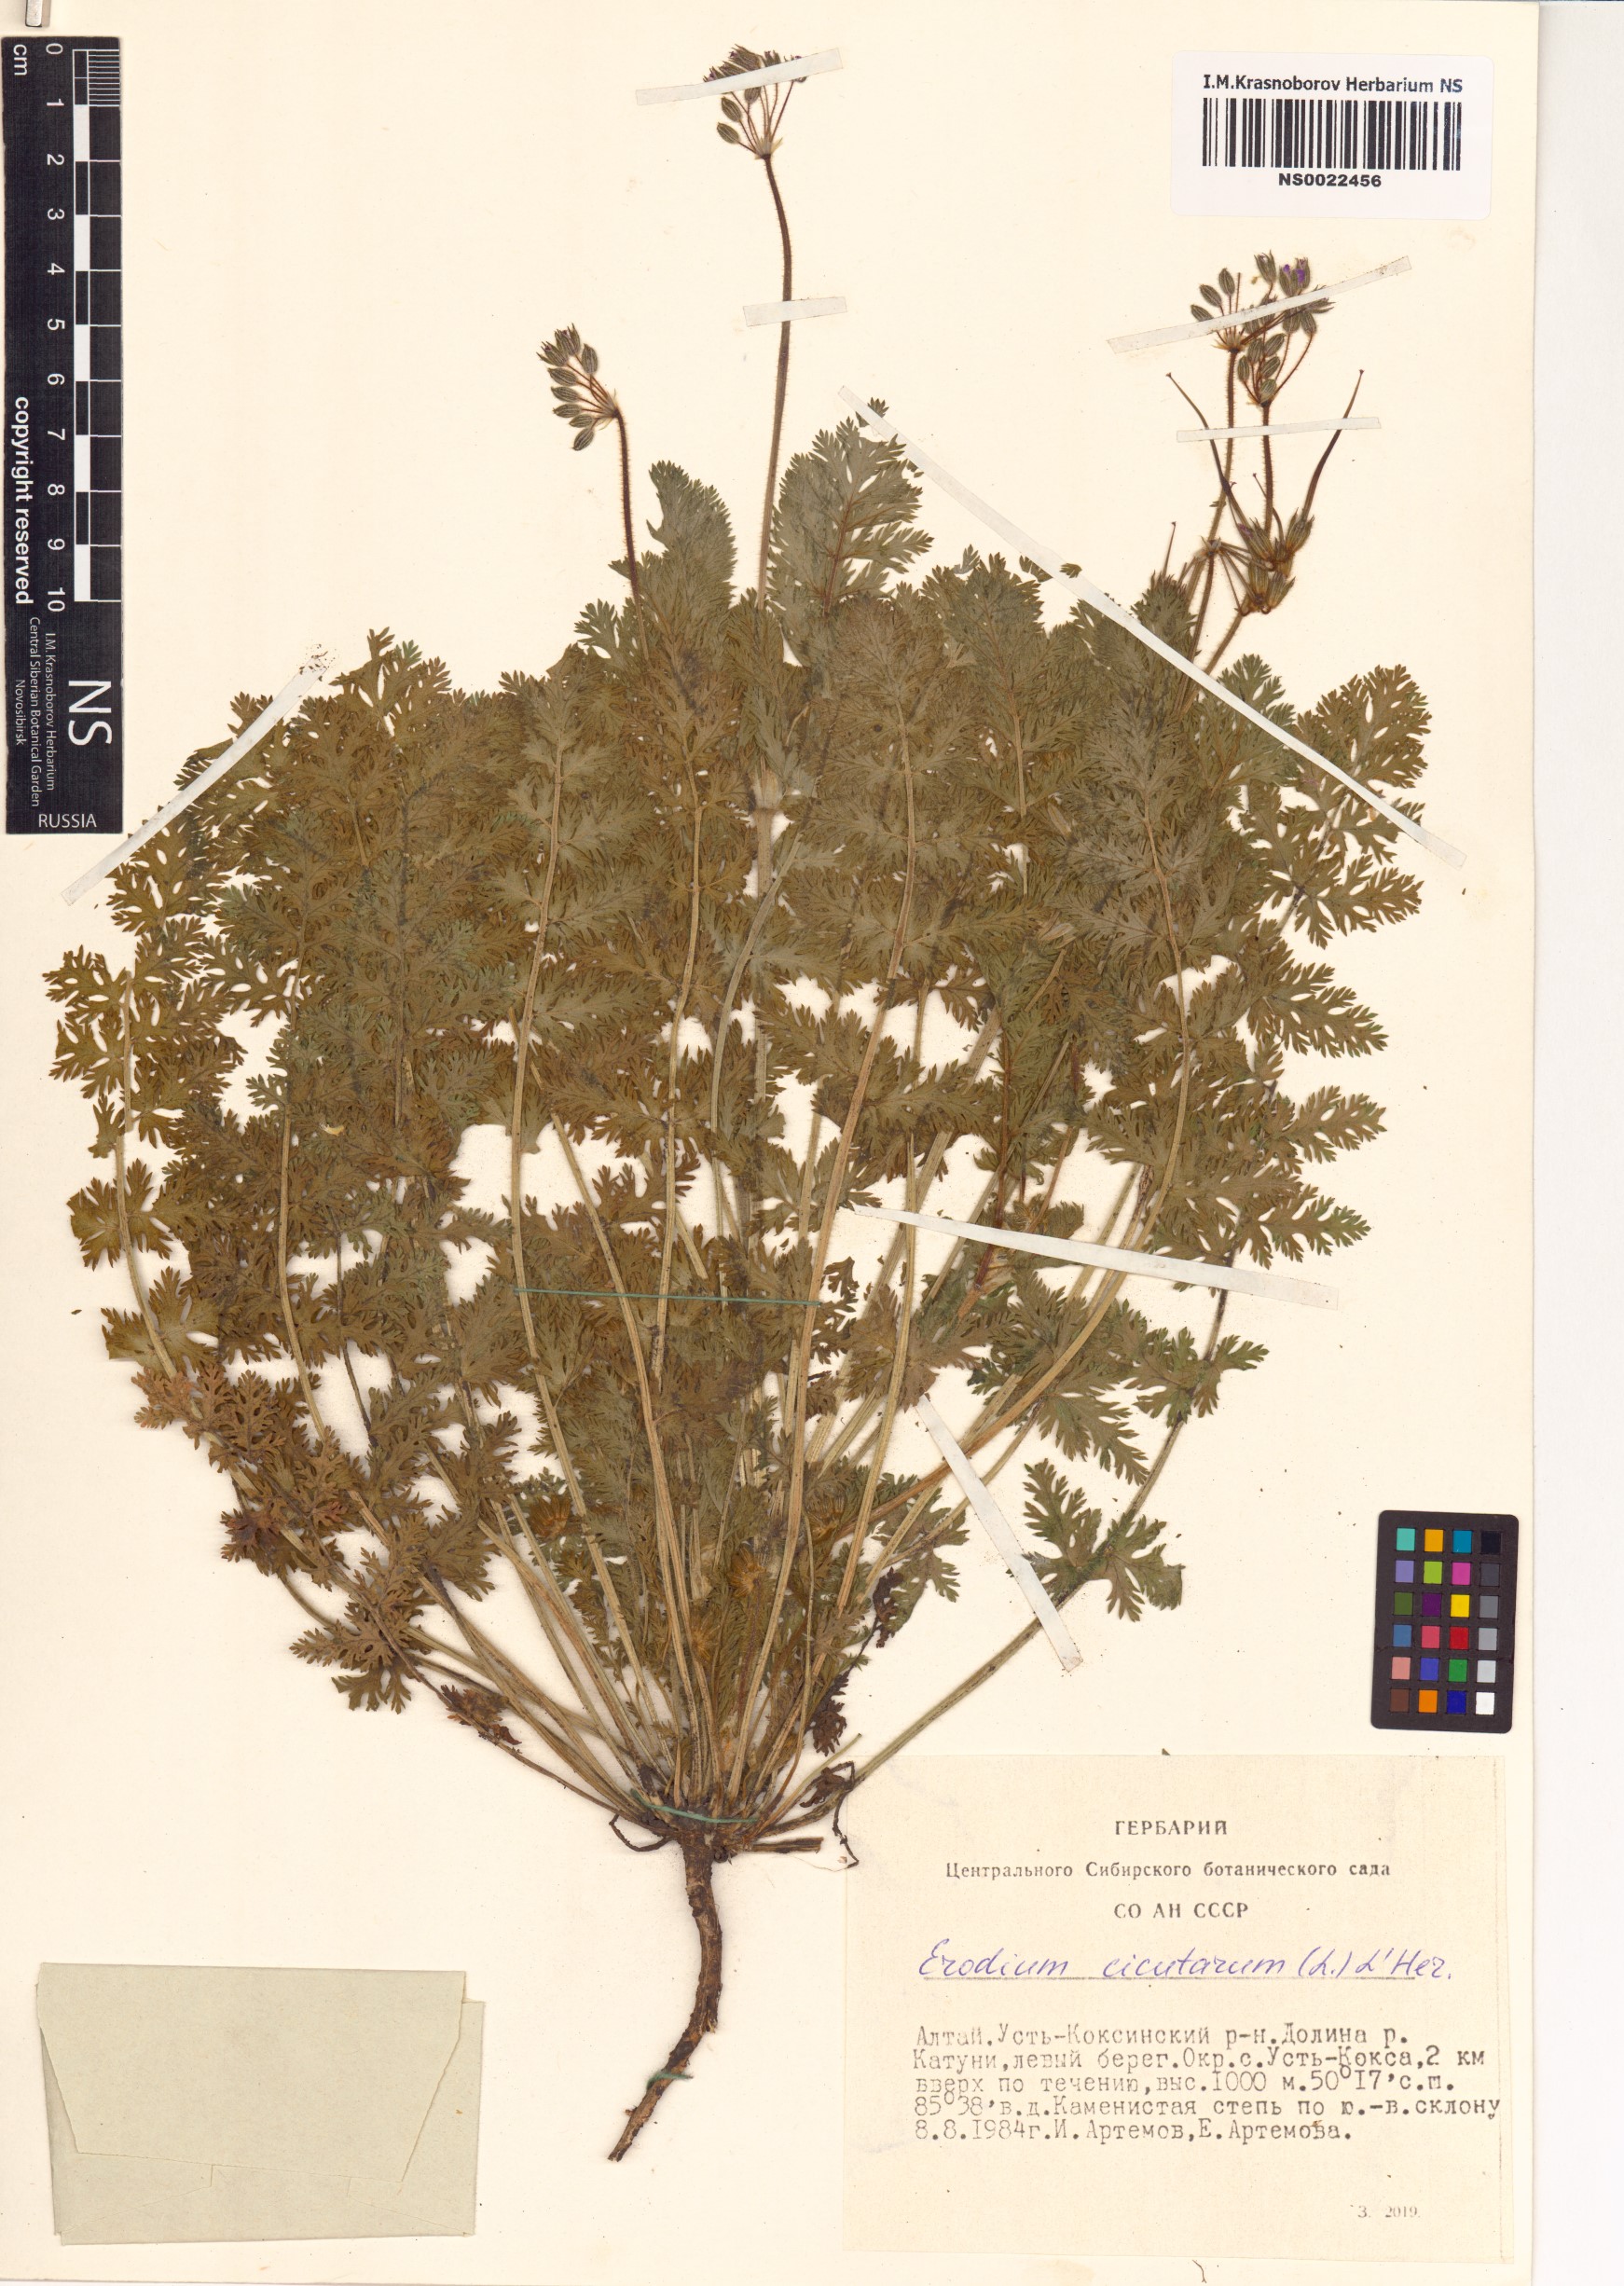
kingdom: Plantae
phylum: Tracheophyta
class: Magnoliopsida
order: Geraniales
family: Geraniaceae
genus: Erodium
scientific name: Erodium cicutarium
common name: Common stork's-bill
